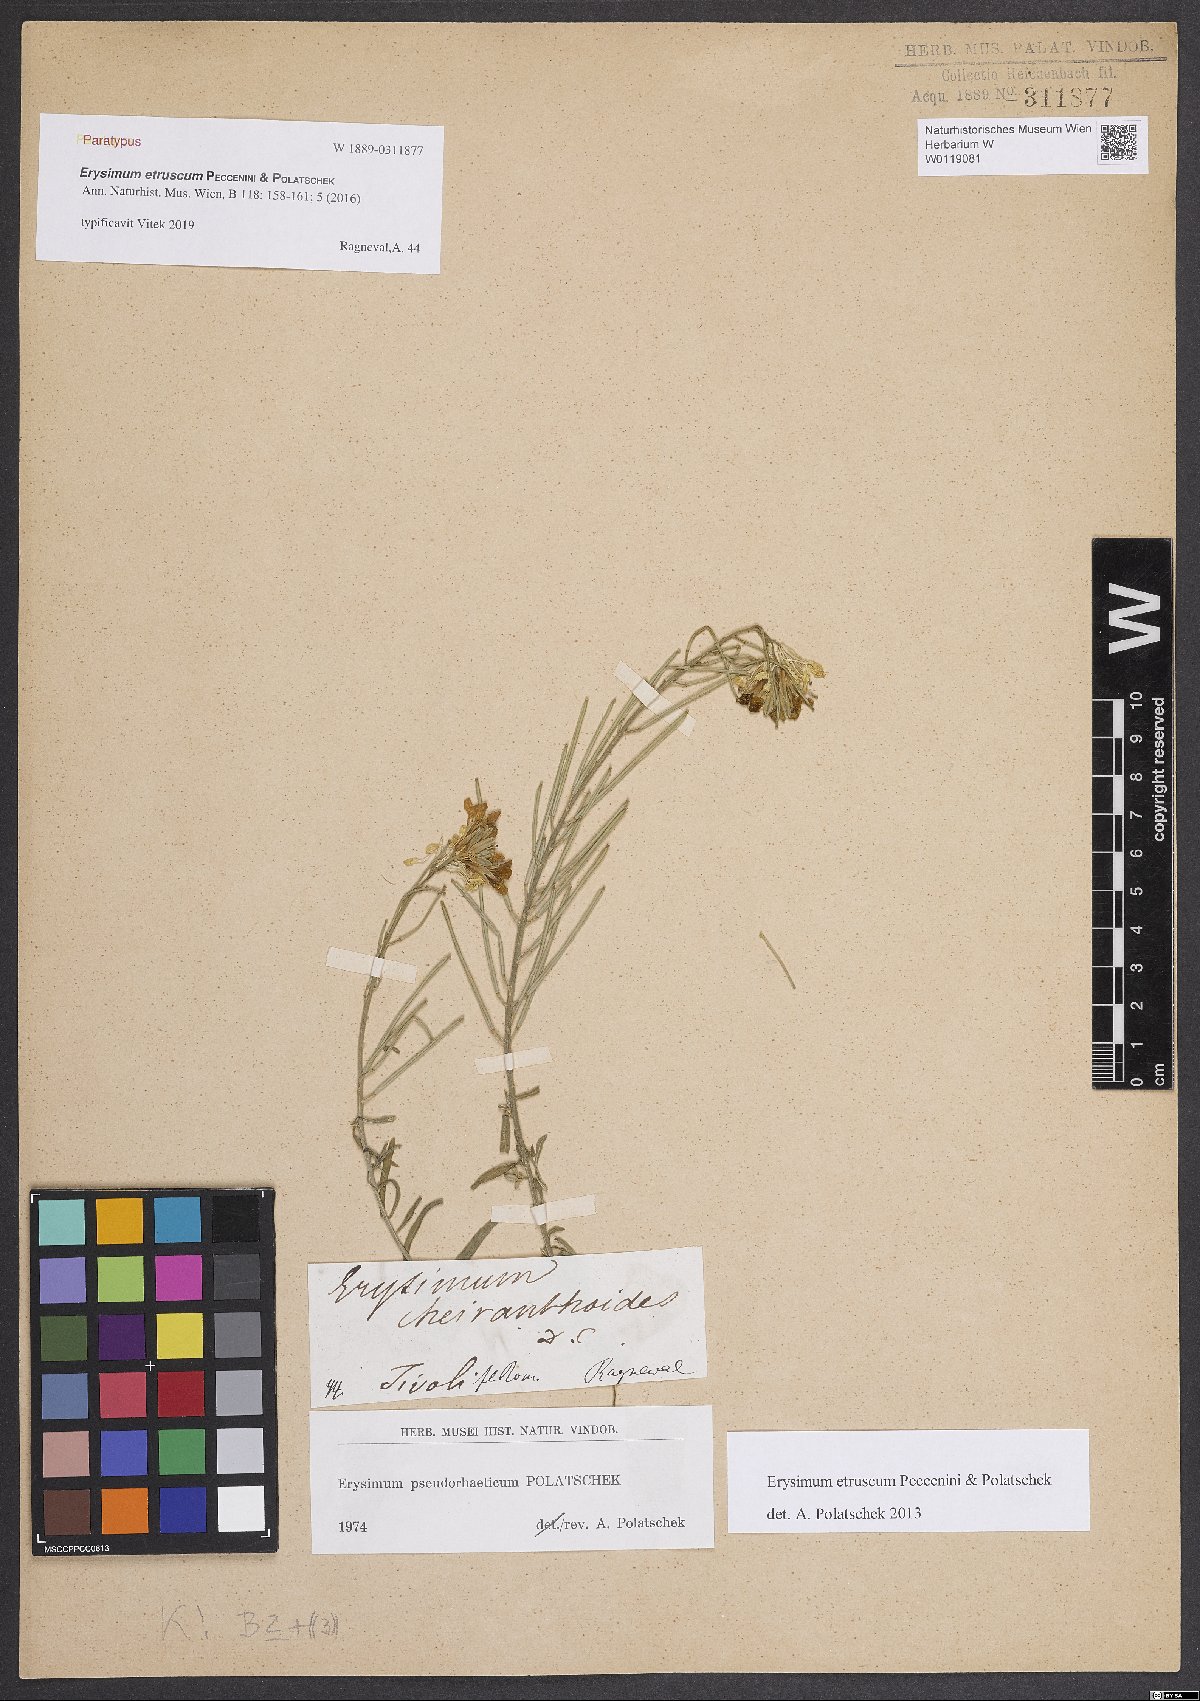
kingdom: Plantae
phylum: Tracheophyta
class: Magnoliopsida
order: Brassicales
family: Brassicaceae
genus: Erysimum
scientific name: Erysimum pseudorhaeticum
